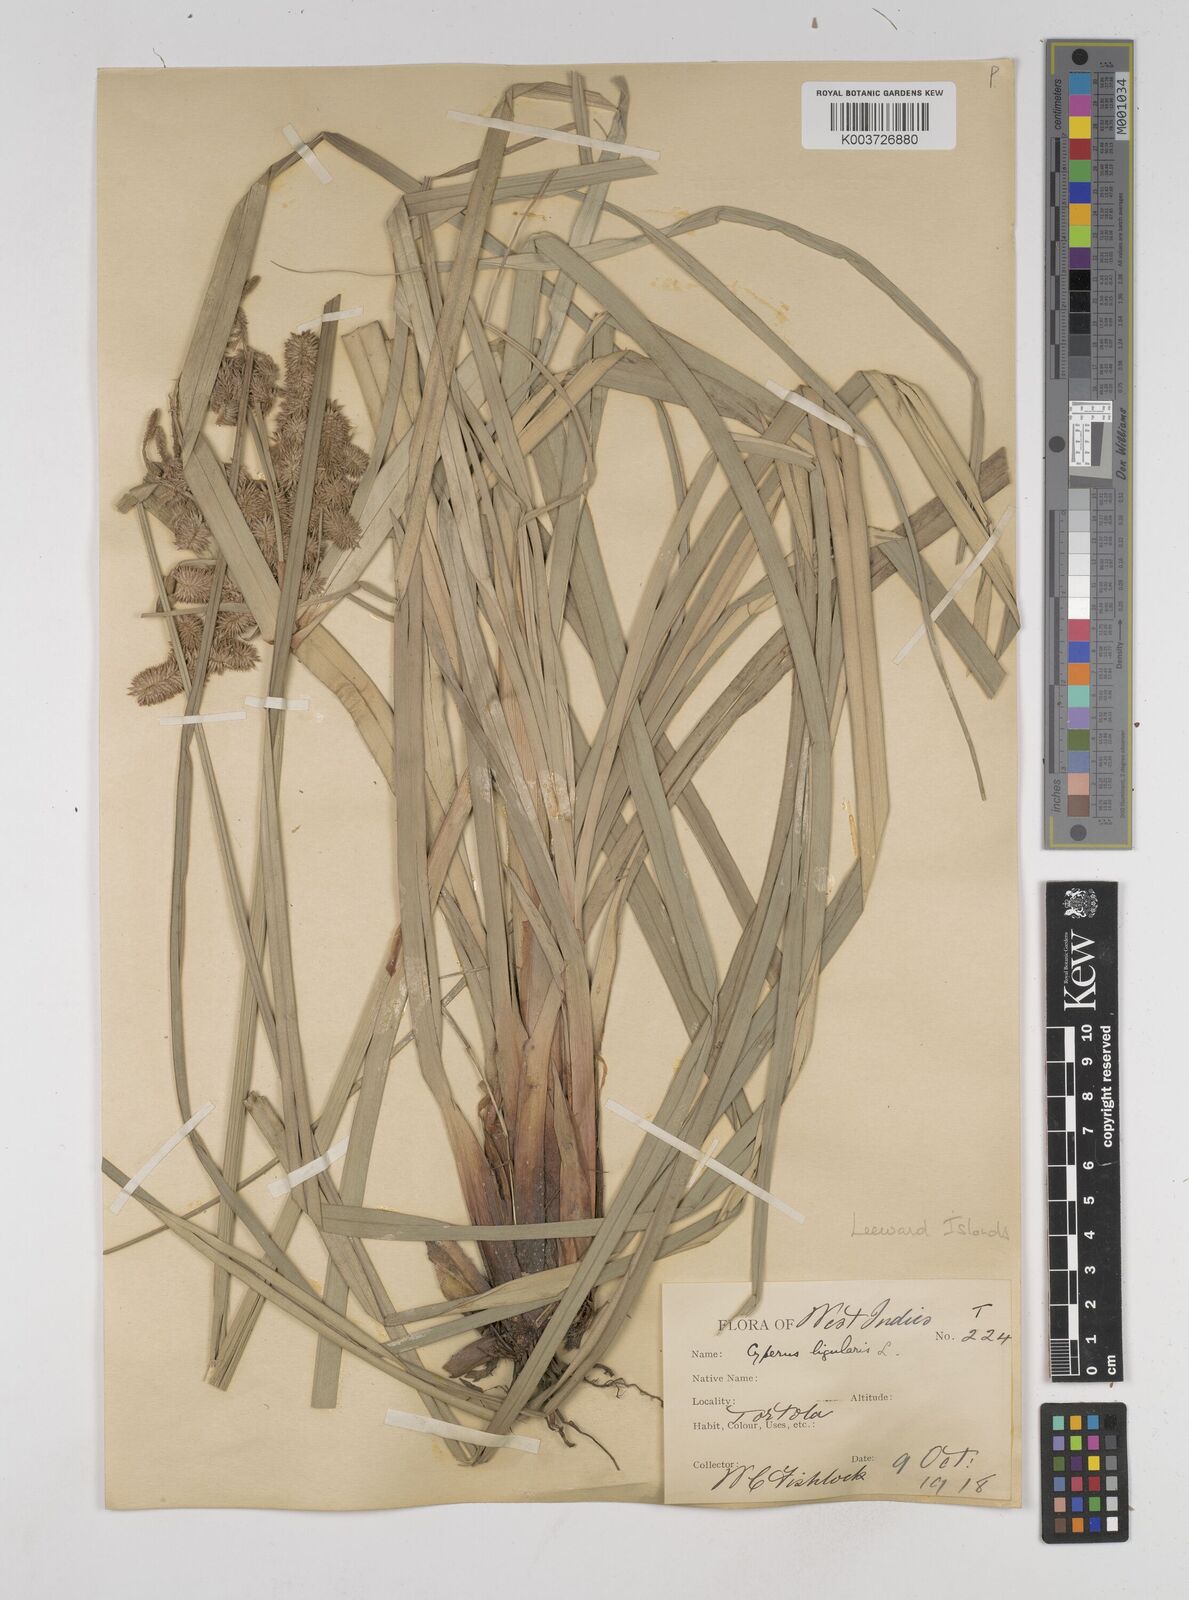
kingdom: Plantae
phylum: Tracheophyta
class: Liliopsida
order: Poales
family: Cyperaceae
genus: Cyperus
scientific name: Cyperus ligularis
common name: Swamp flat sedge
